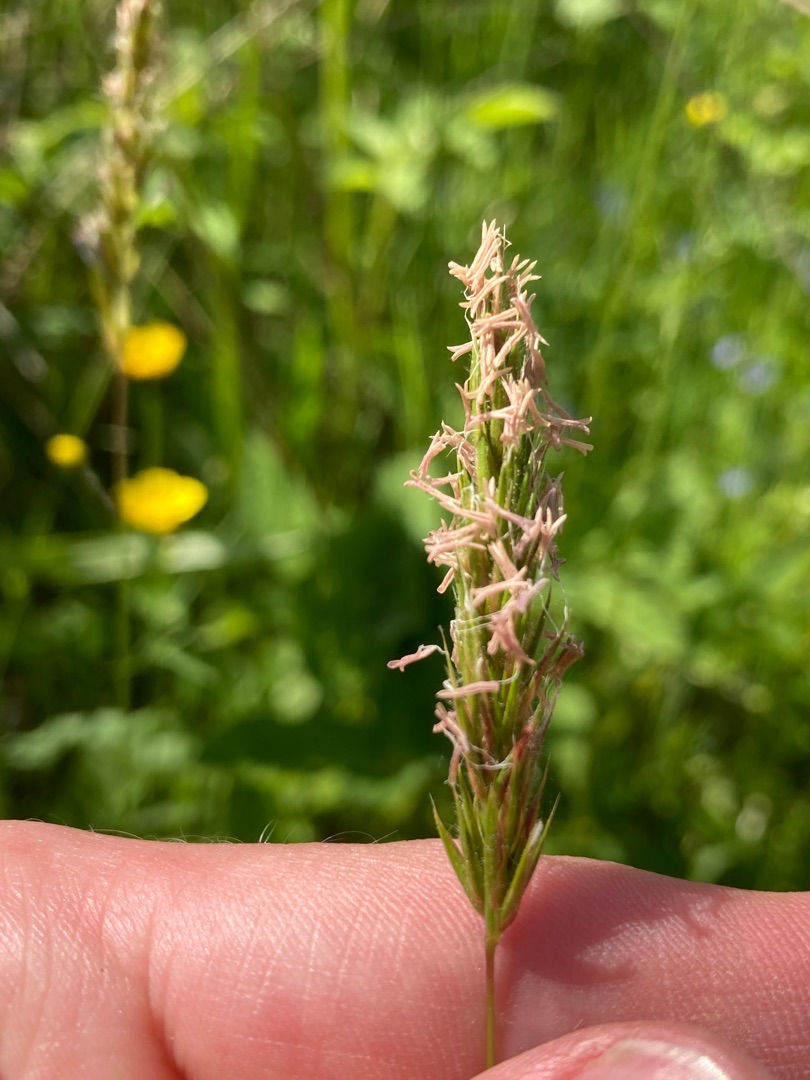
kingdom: Plantae
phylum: Tracheophyta
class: Liliopsida
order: Poales
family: Poaceae
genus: Anthoxanthum
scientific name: Anthoxanthum odoratum
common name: Vellugtende gulaks
